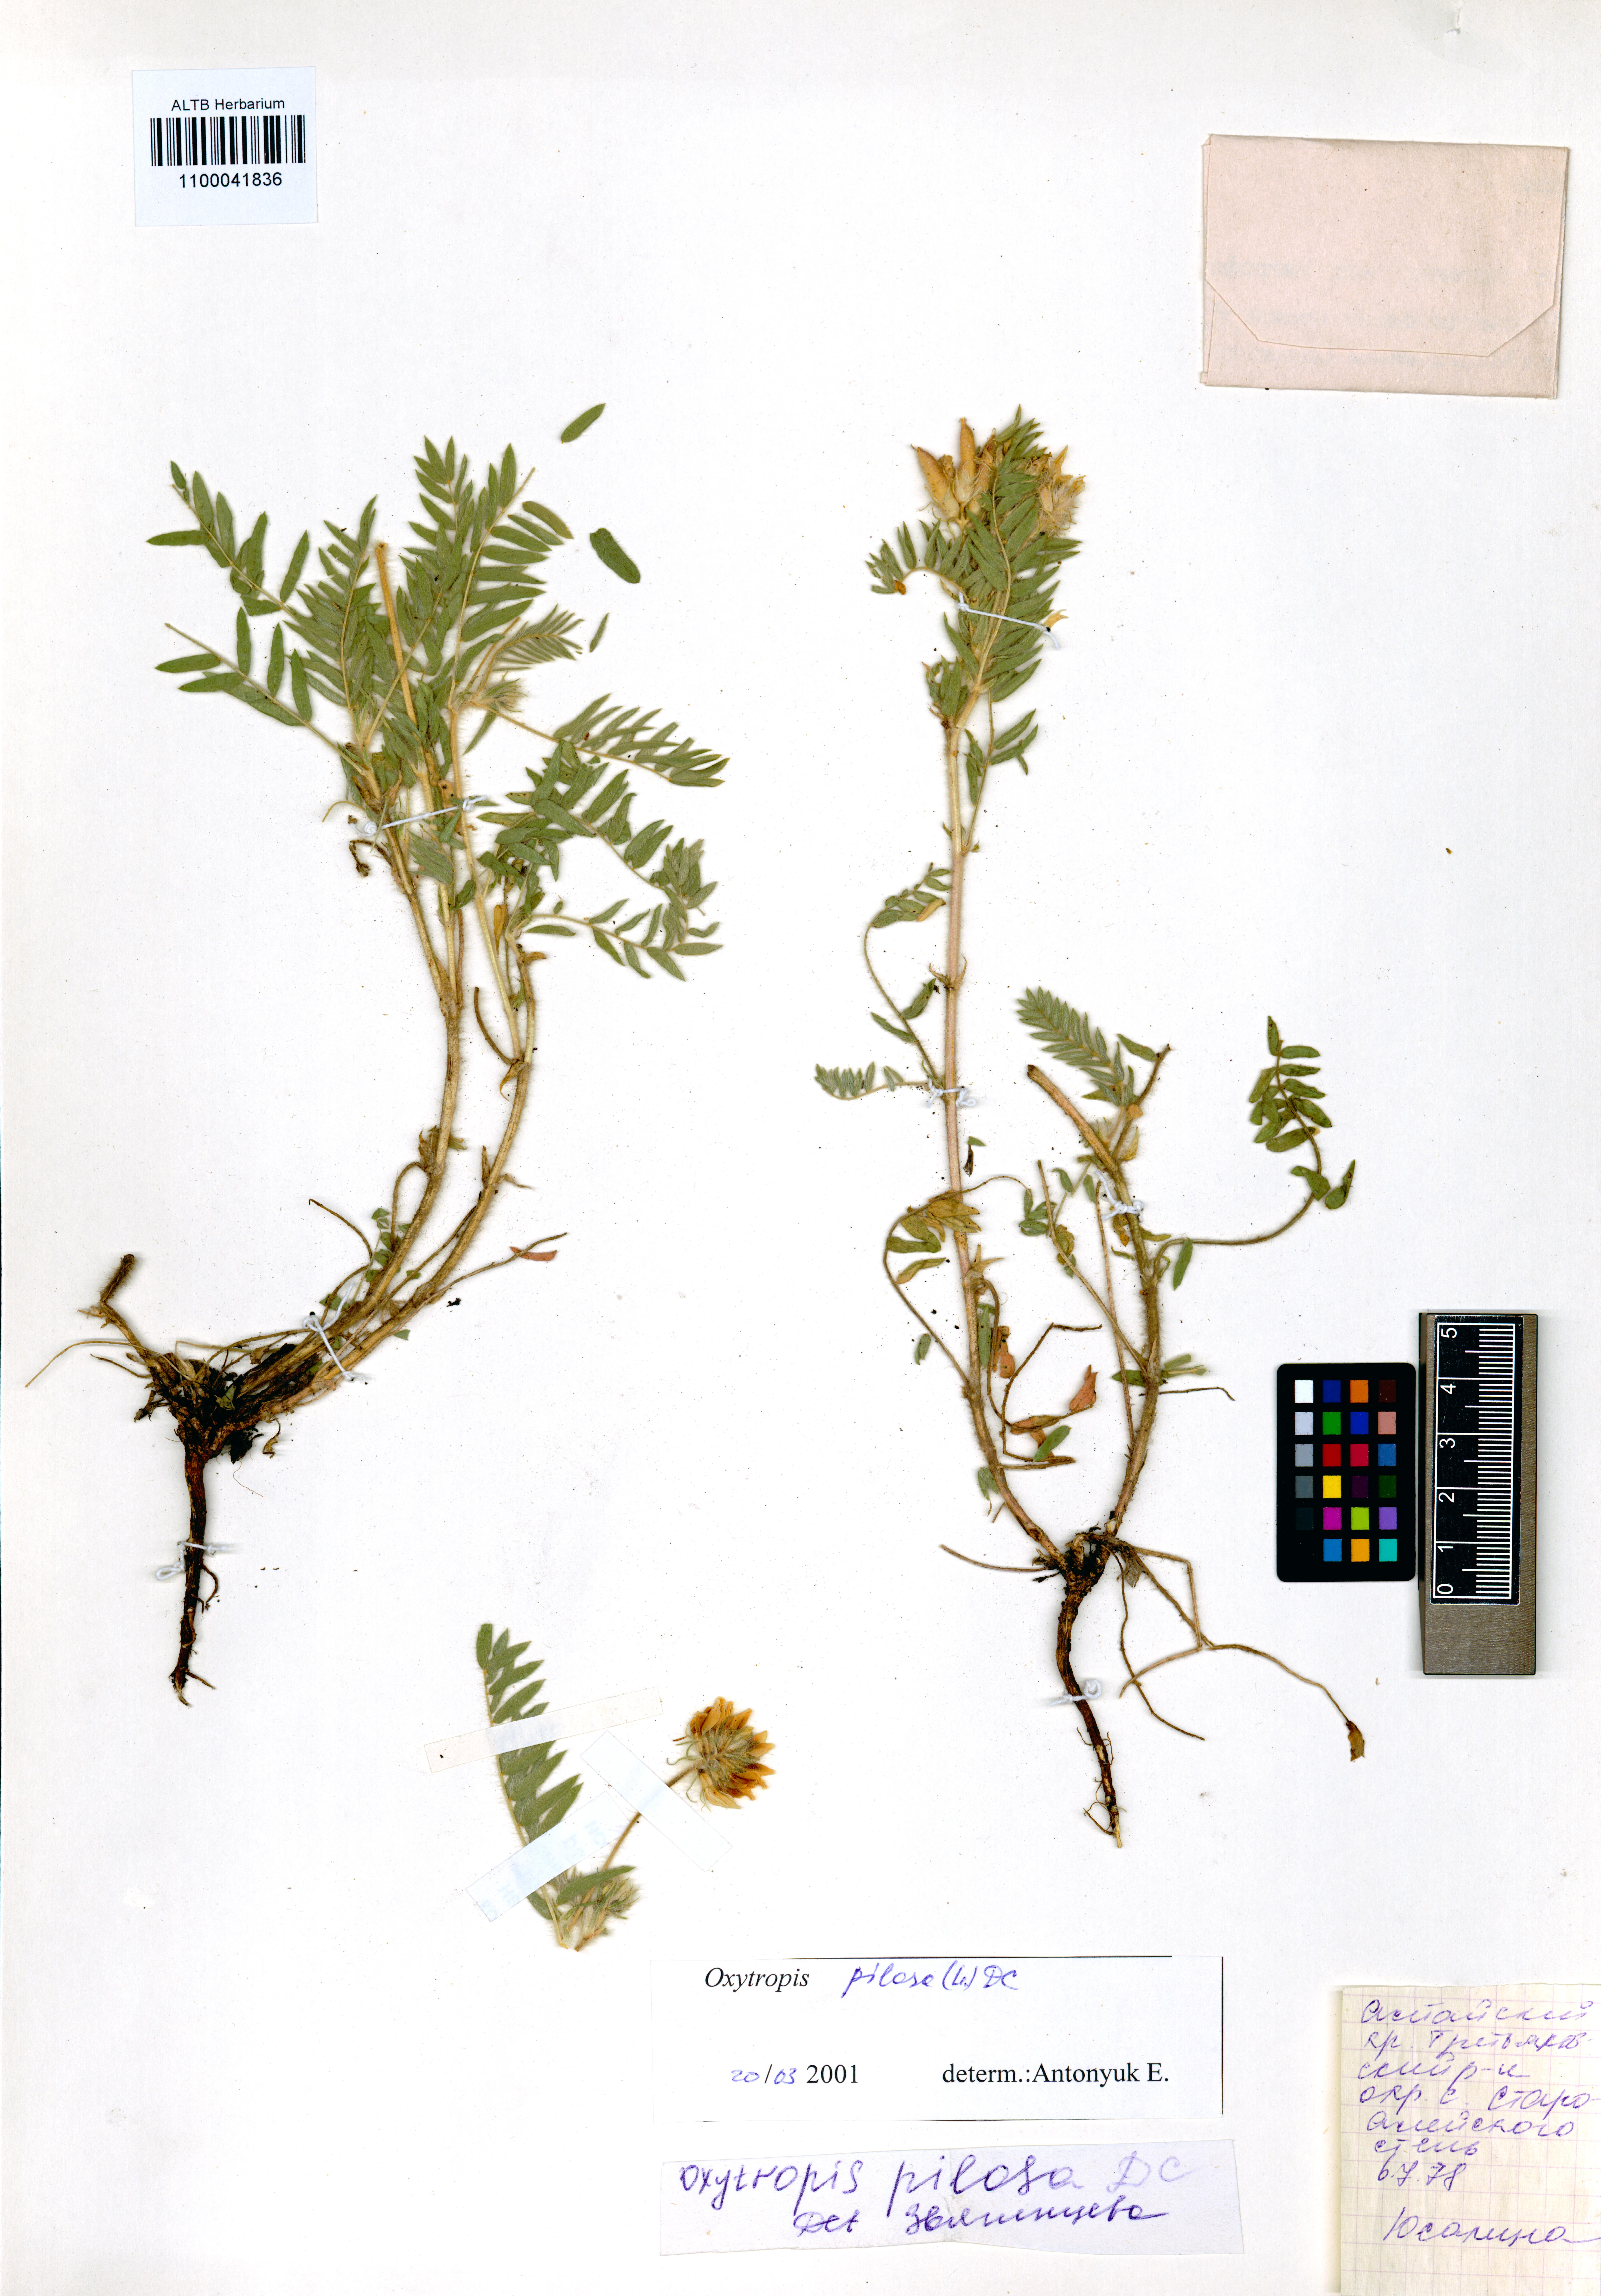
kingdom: Plantae
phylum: Tracheophyta
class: Magnoliopsida
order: Fabales
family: Fabaceae
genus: Oxytropis
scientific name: Oxytropis pilosa
